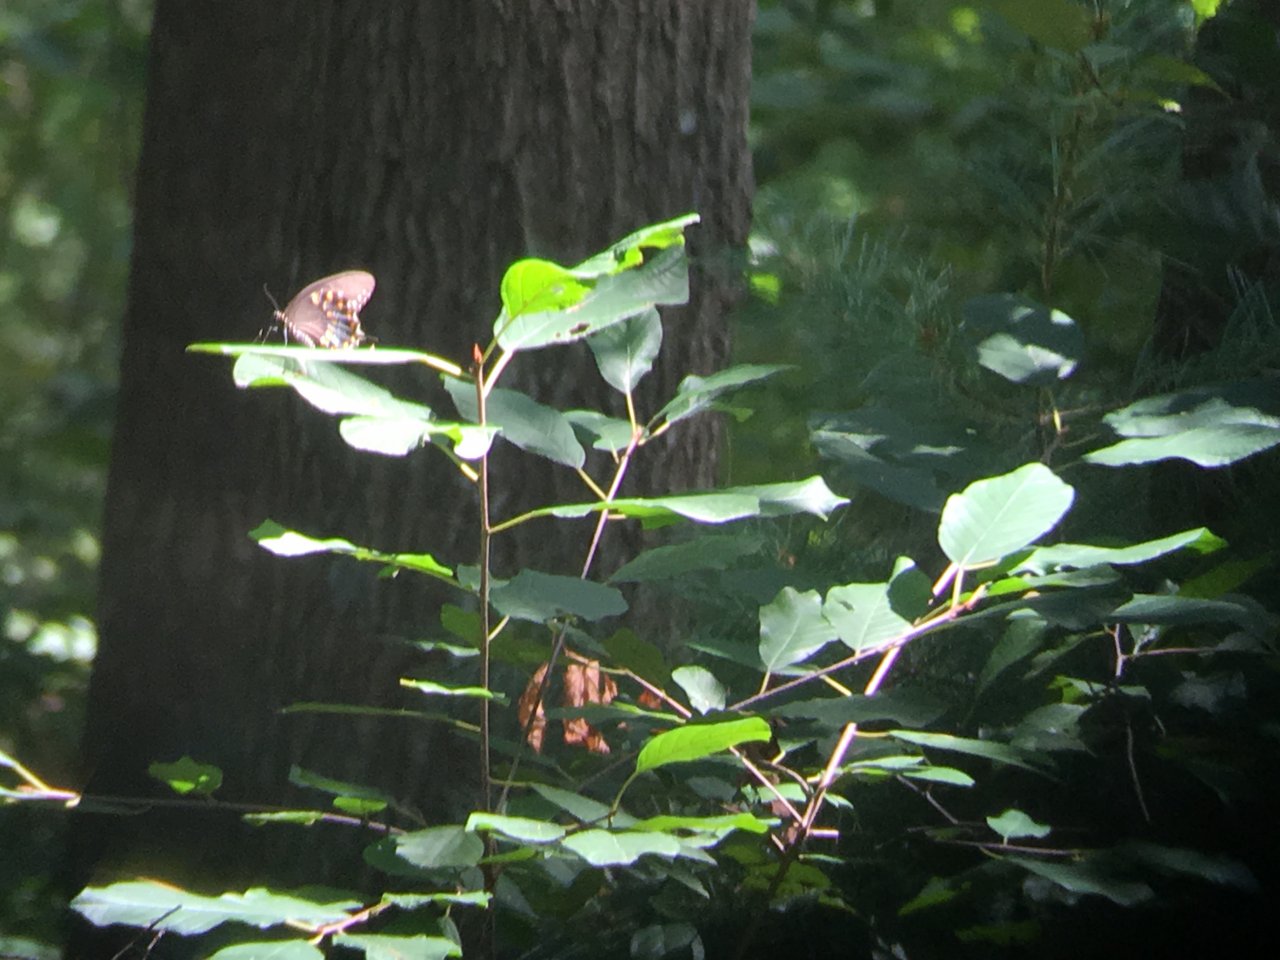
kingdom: Animalia
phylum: Arthropoda
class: Insecta
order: Lepidoptera
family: Papilionidae
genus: Pterourus
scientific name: Pterourus troilus
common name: Spicebush Swallowtail
